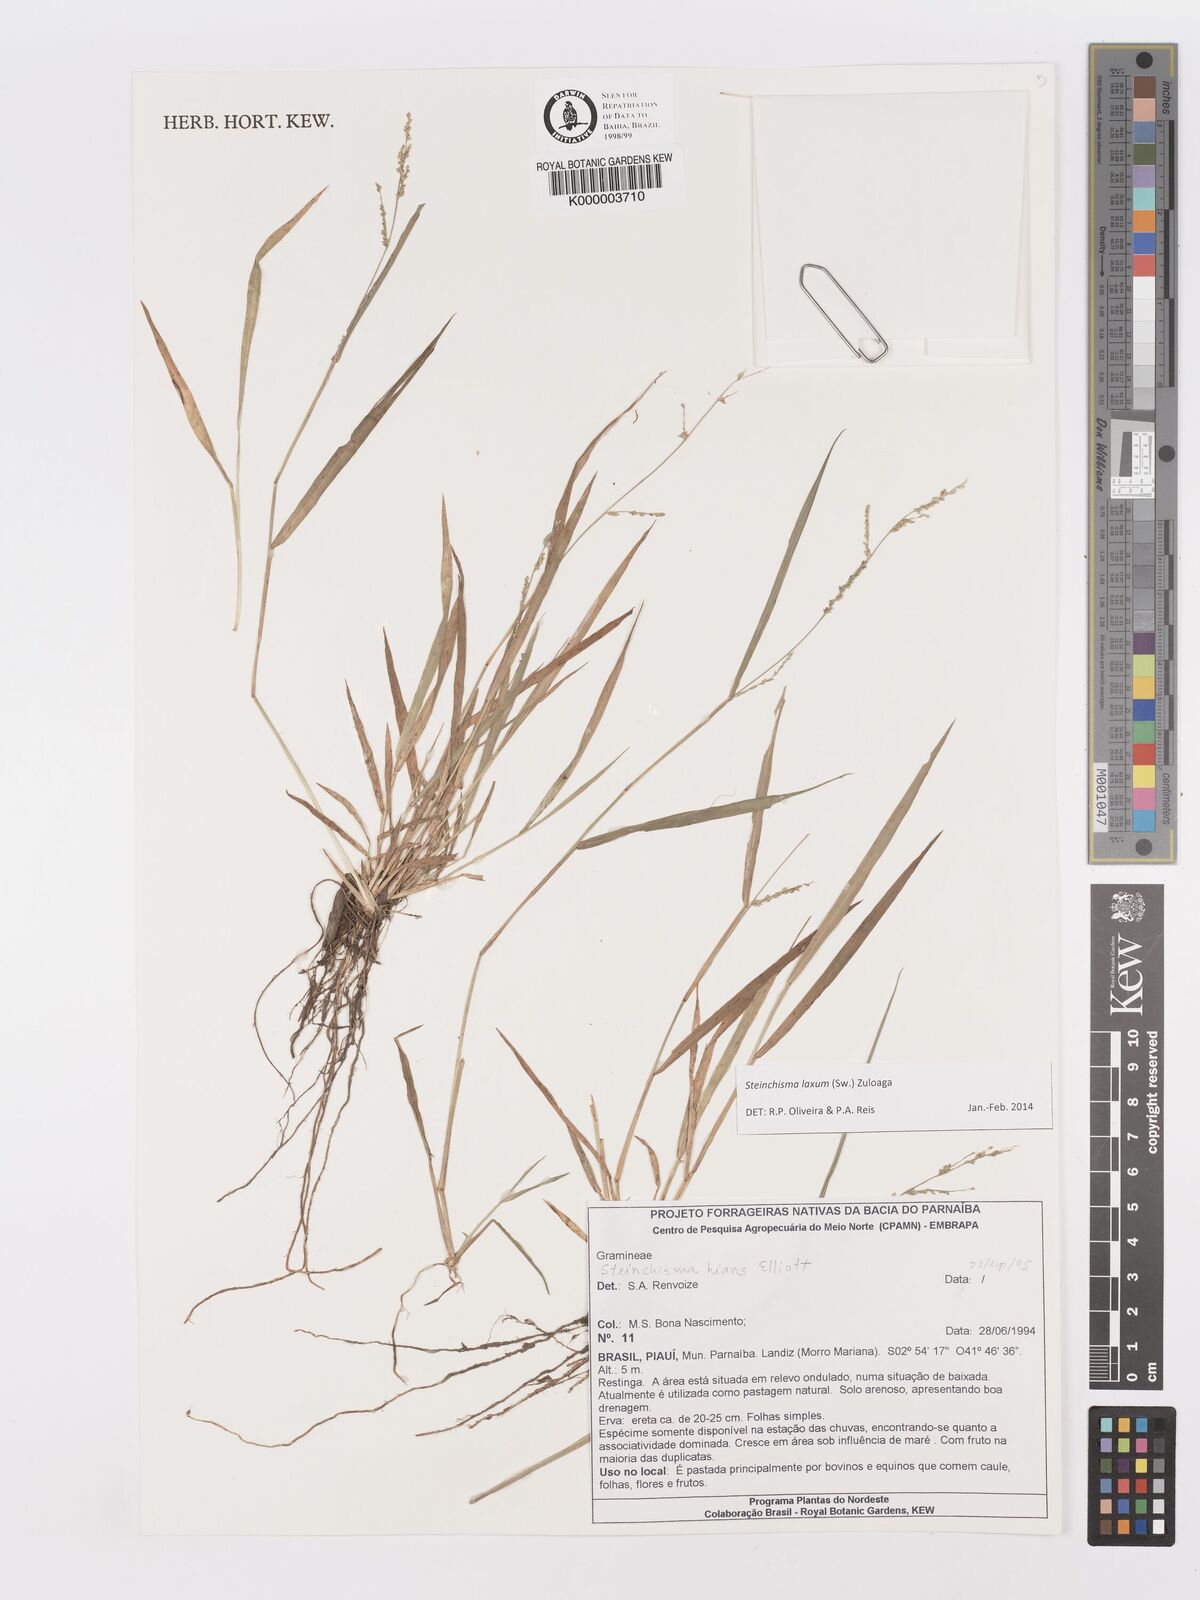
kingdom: Plantae
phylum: Tracheophyta
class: Liliopsida
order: Poales
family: Poaceae
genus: Panicum
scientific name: Panicum
